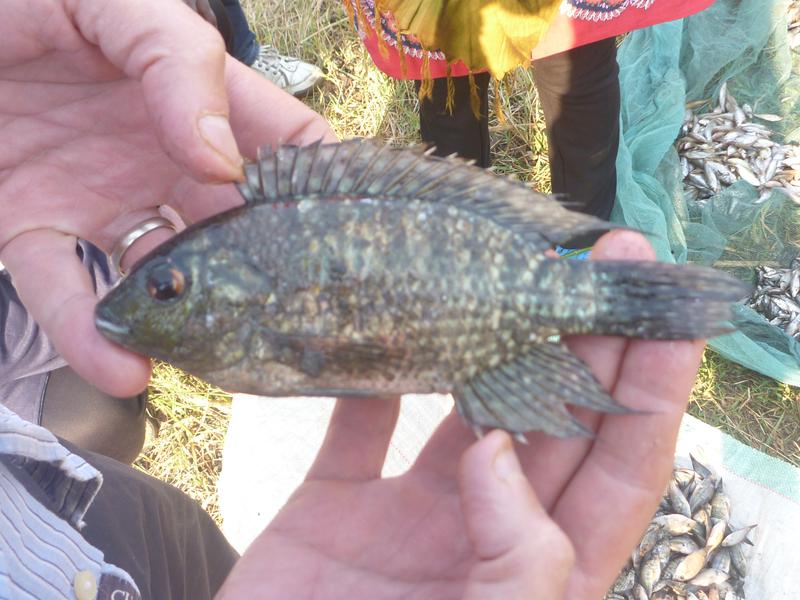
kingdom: Animalia
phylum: Chordata
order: Perciformes
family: Cichlidae
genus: Oreochromis
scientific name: Oreochromis leucostictus
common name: Blue spotted tilapia
